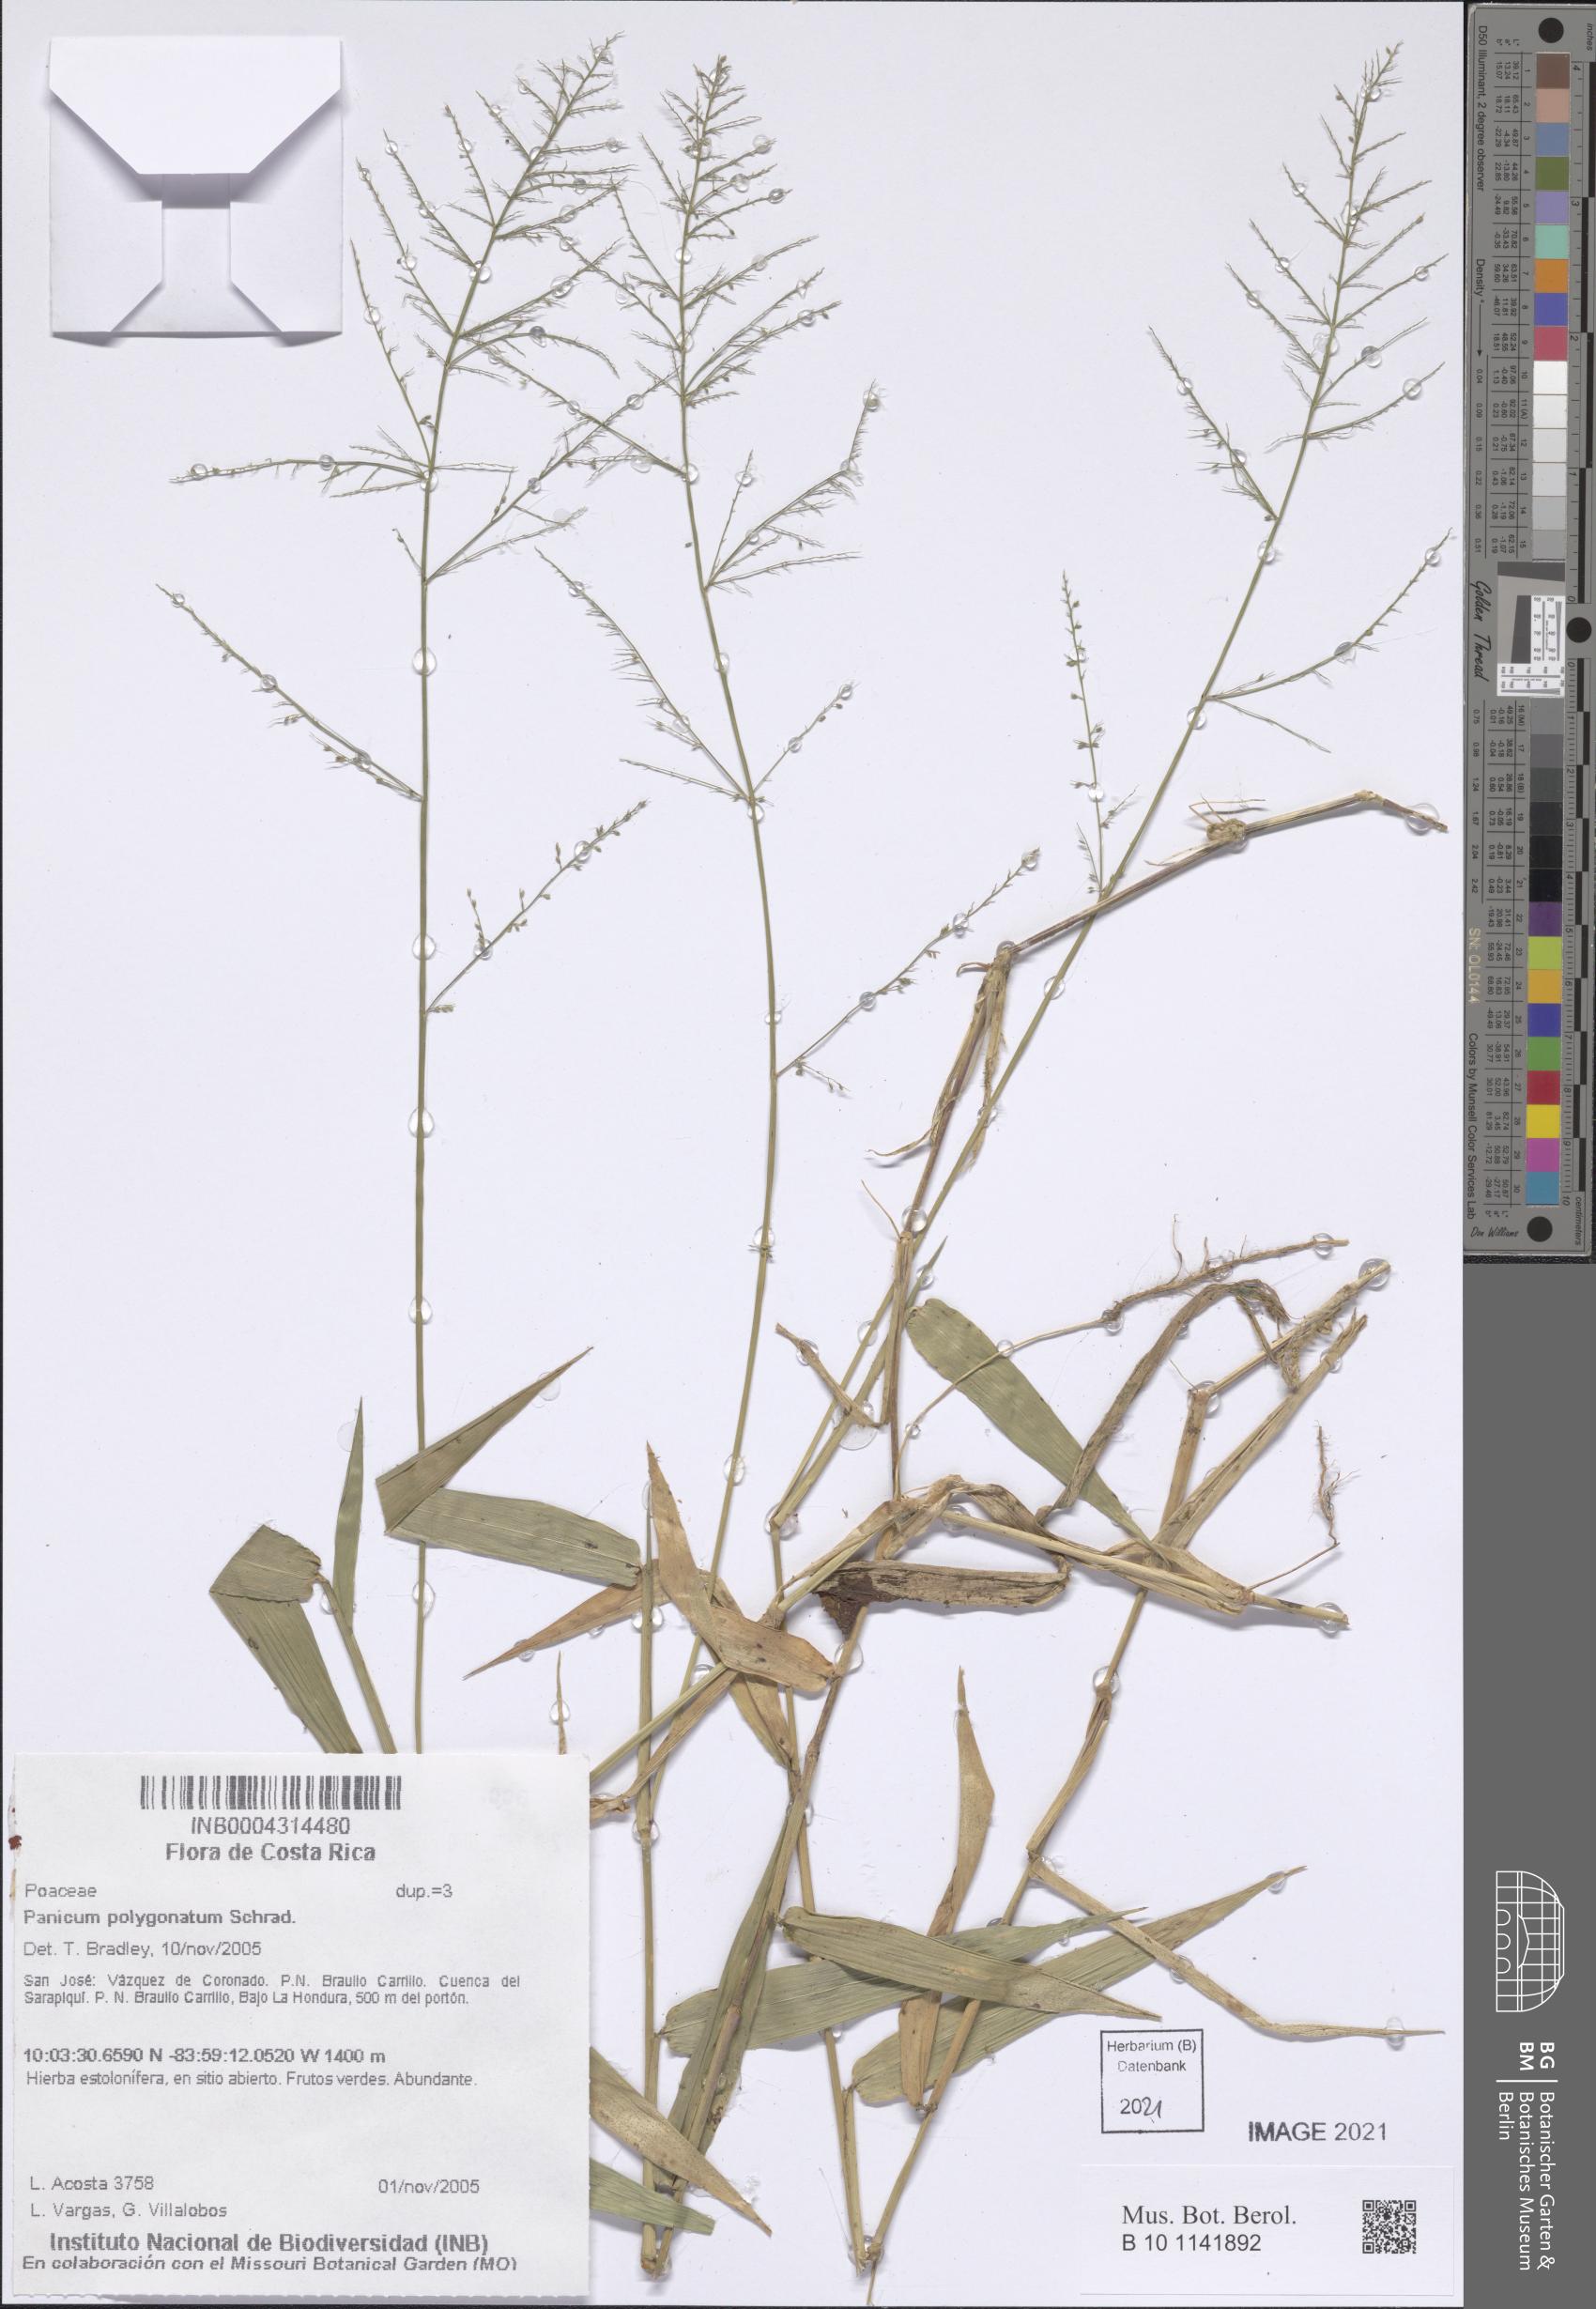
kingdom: Plantae
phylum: Tracheophyta
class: Liliopsida
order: Poales
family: Poaceae
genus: Rugoloa
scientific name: Rugoloa polygonata
